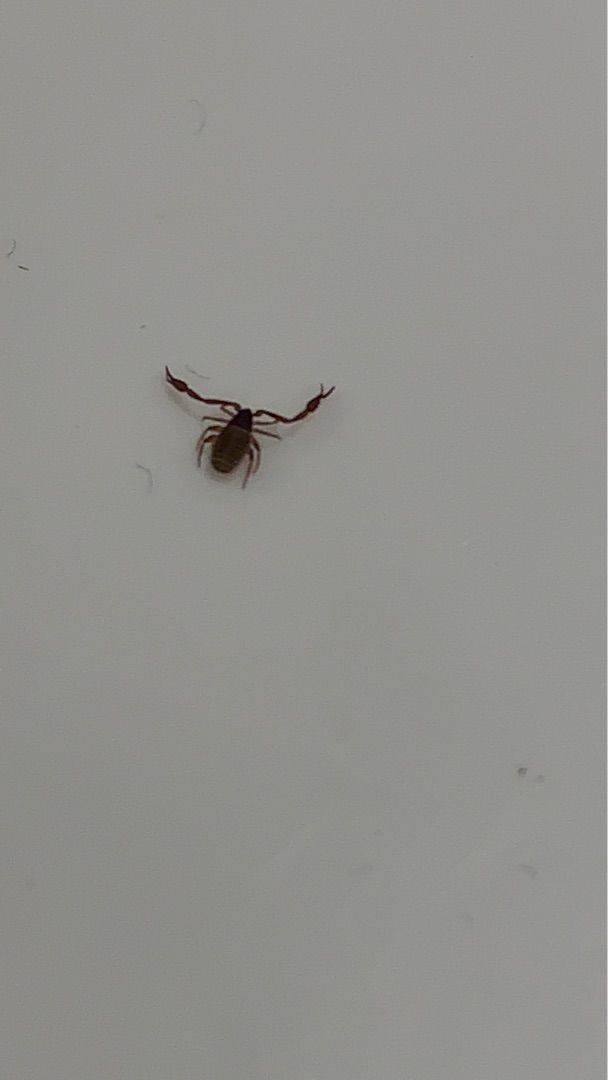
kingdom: Animalia
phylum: Arthropoda
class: Arachnida
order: Pseudoscorpiones
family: Cheliferidae
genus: Chelifer
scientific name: Chelifer cancroides
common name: Bogskorpion
